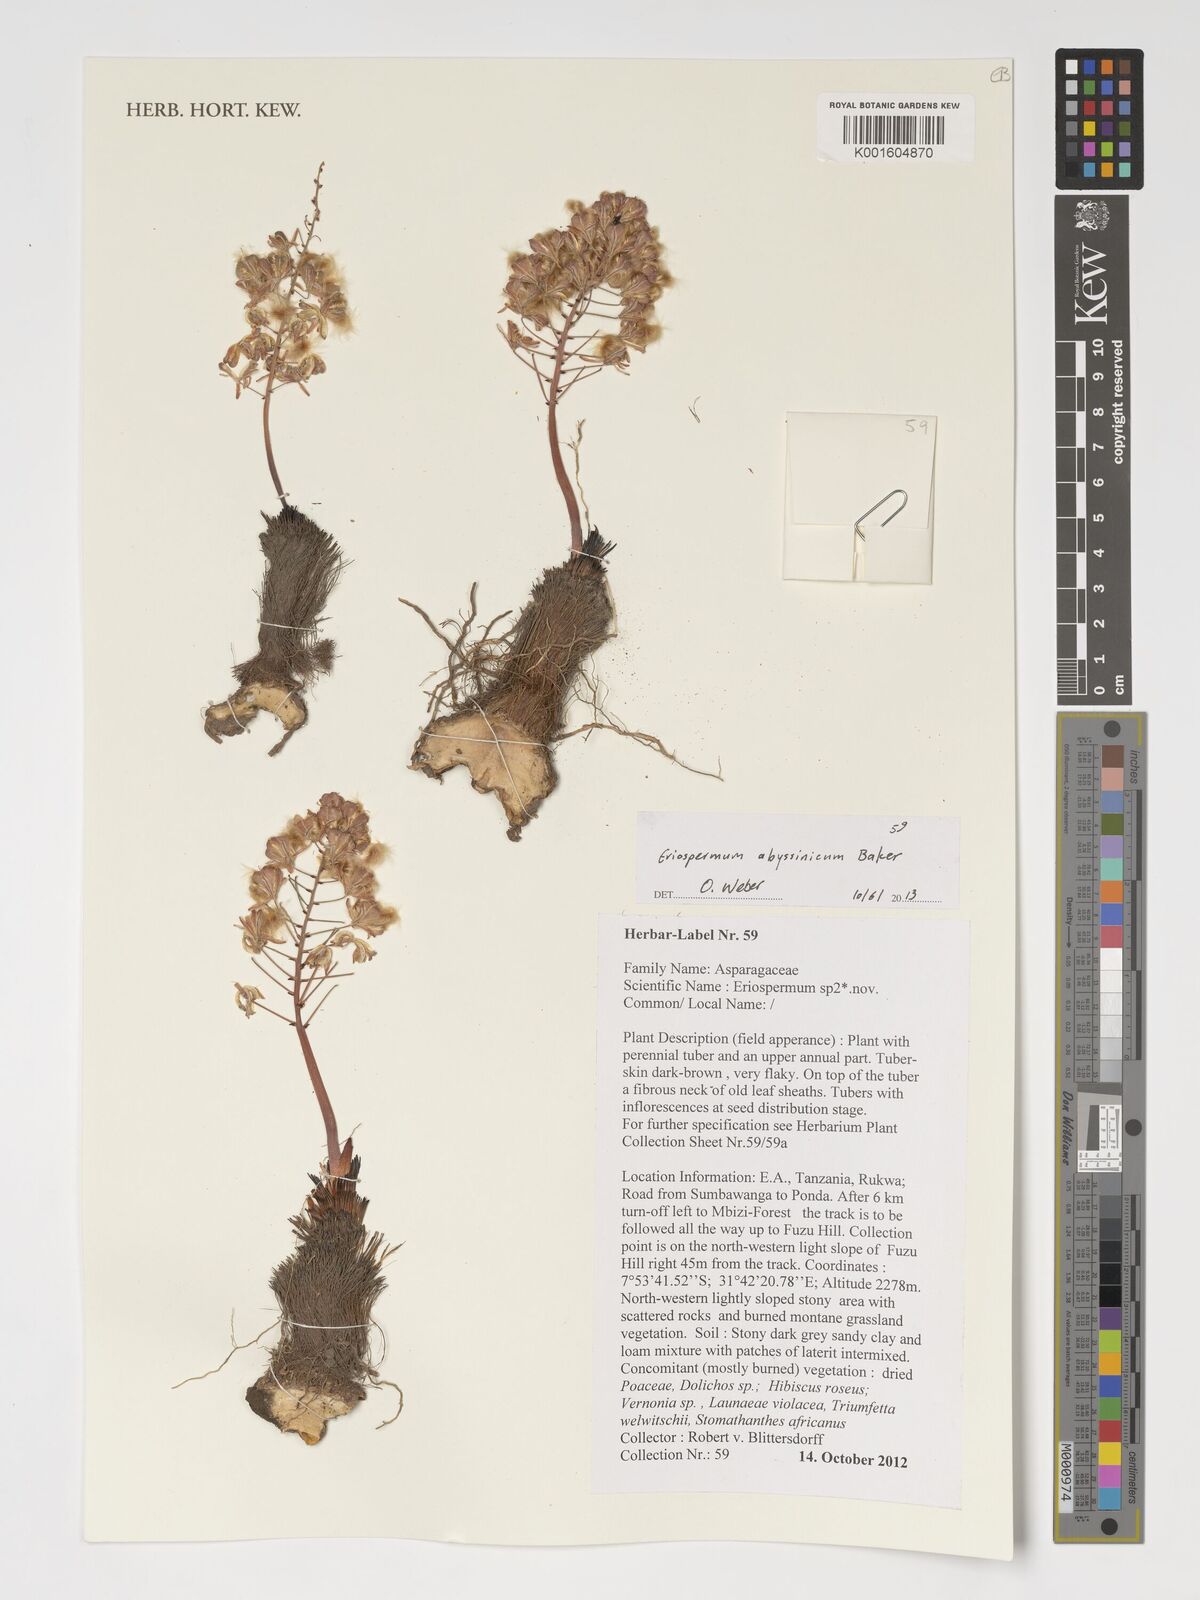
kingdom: Plantae
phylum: Tracheophyta
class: Liliopsida
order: Asparagales
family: Asparagaceae
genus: Eriospermum
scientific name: Eriospermum abyssinicum
